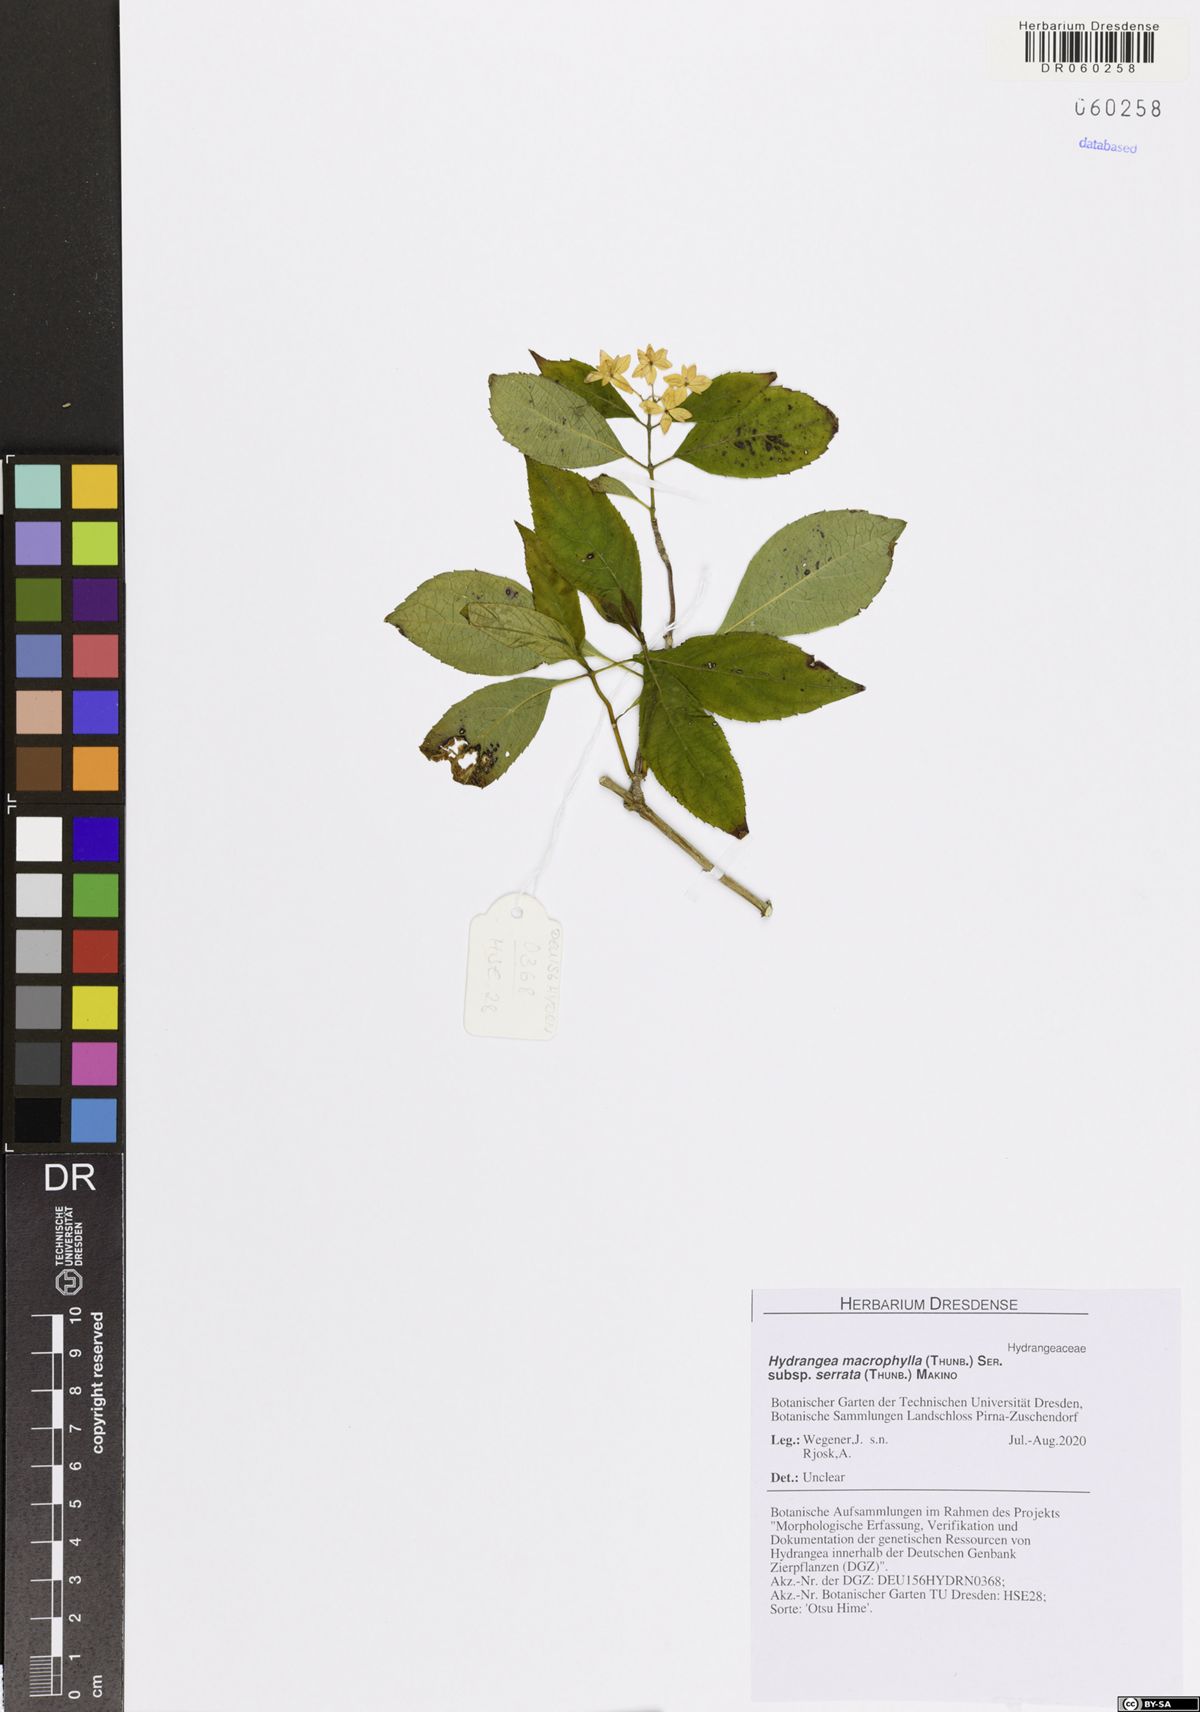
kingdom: Plantae
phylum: Tracheophyta
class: Magnoliopsida
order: Cornales
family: Hydrangeaceae
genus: Hydrangea
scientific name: Hydrangea serrata
